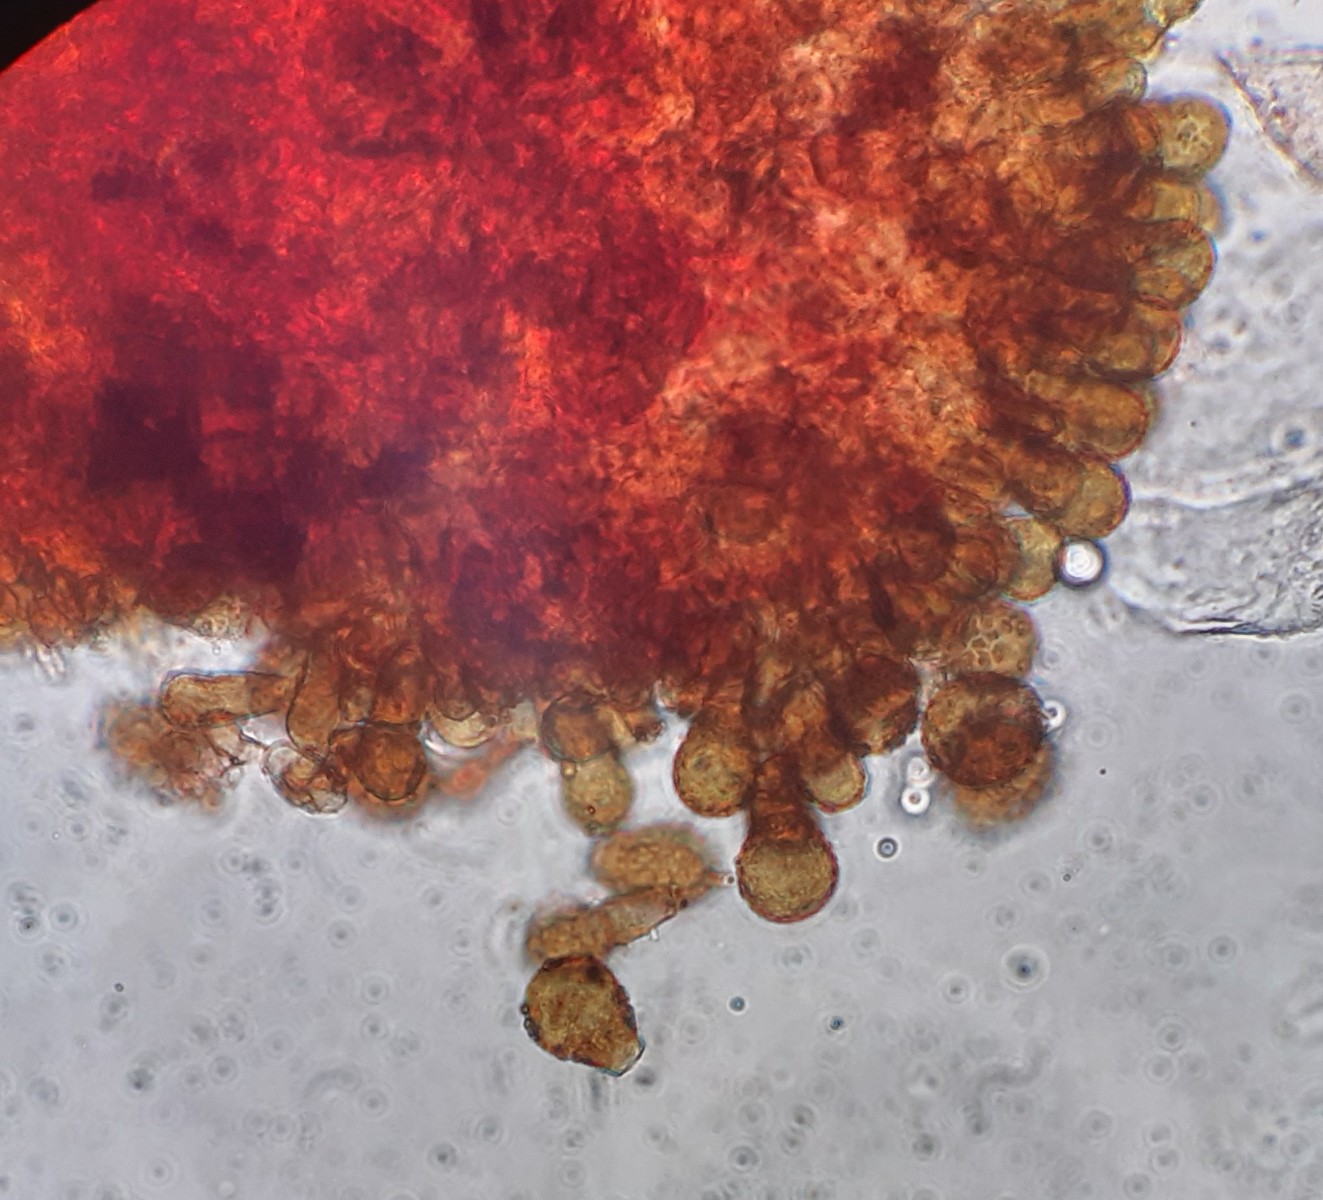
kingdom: Fungi
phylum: Basidiomycota
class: Pucciniomycetes
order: Pucciniales
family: Melampsoraceae
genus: Melampsora
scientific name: Melampsora populnea
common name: poppel-skorperust
